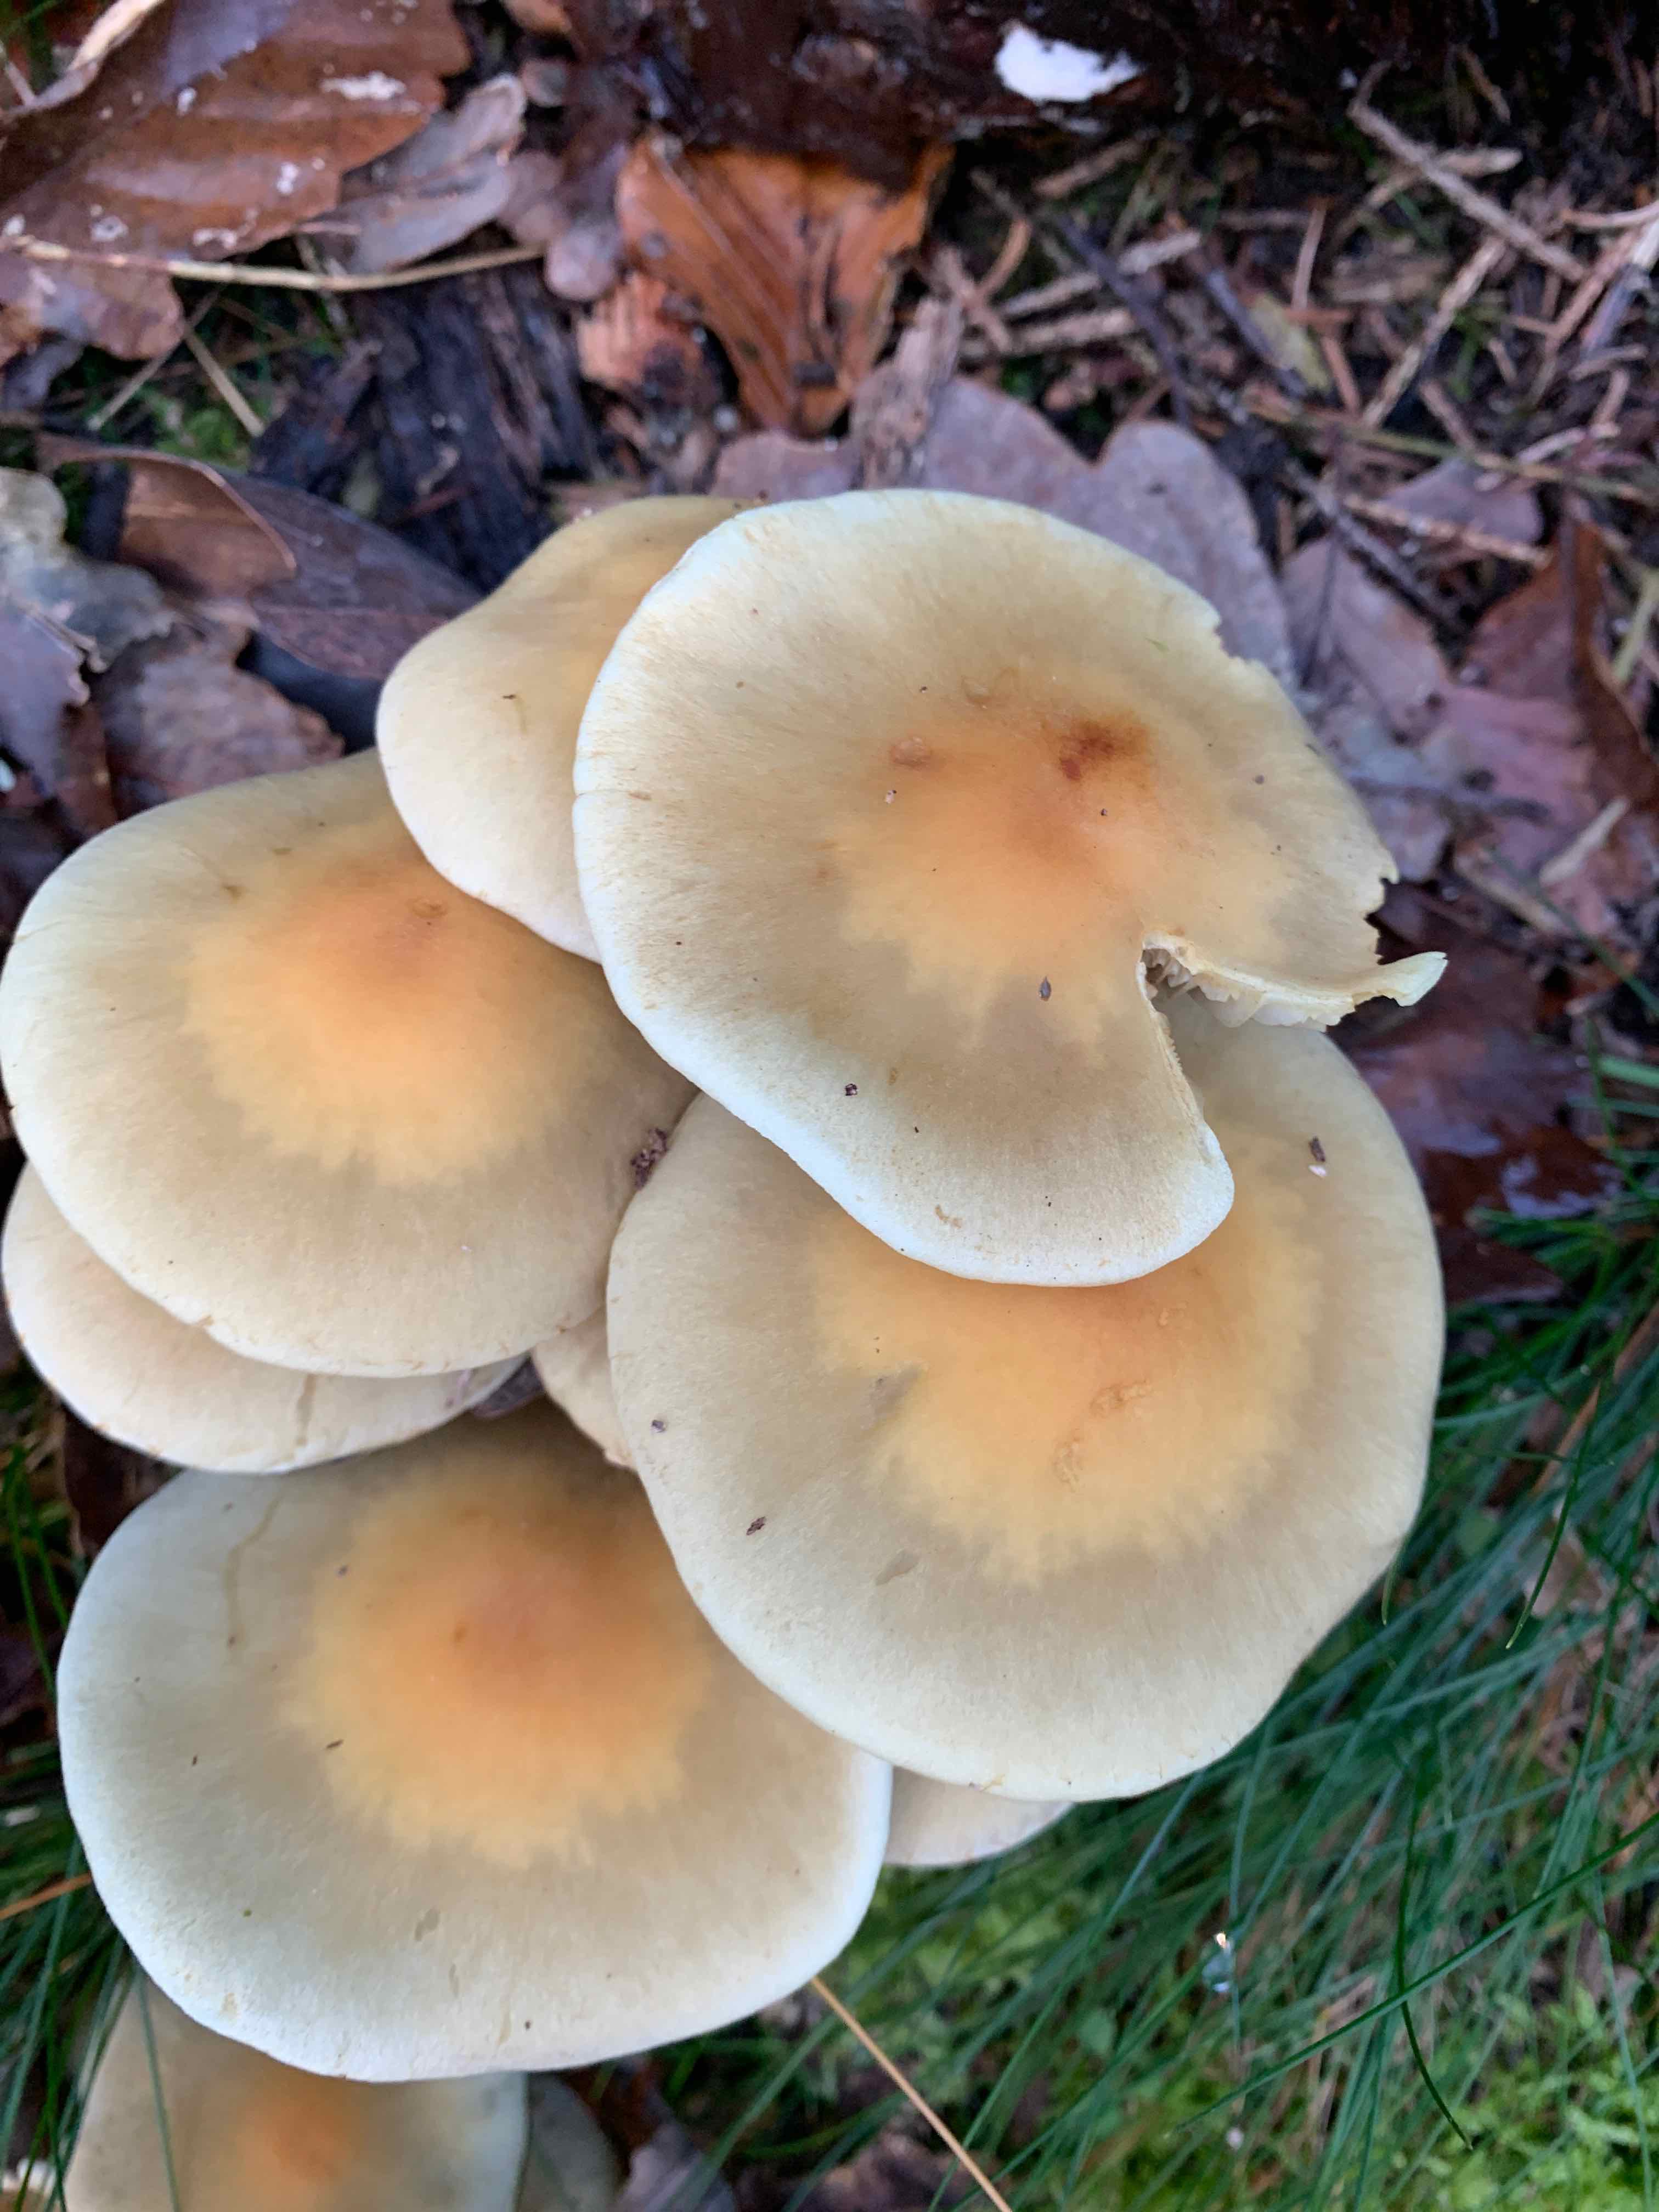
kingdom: Fungi
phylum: Basidiomycota
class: Agaricomycetes
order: Agaricales
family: Strophariaceae
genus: Hypholoma
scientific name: Hypholoma
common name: svovlhat
